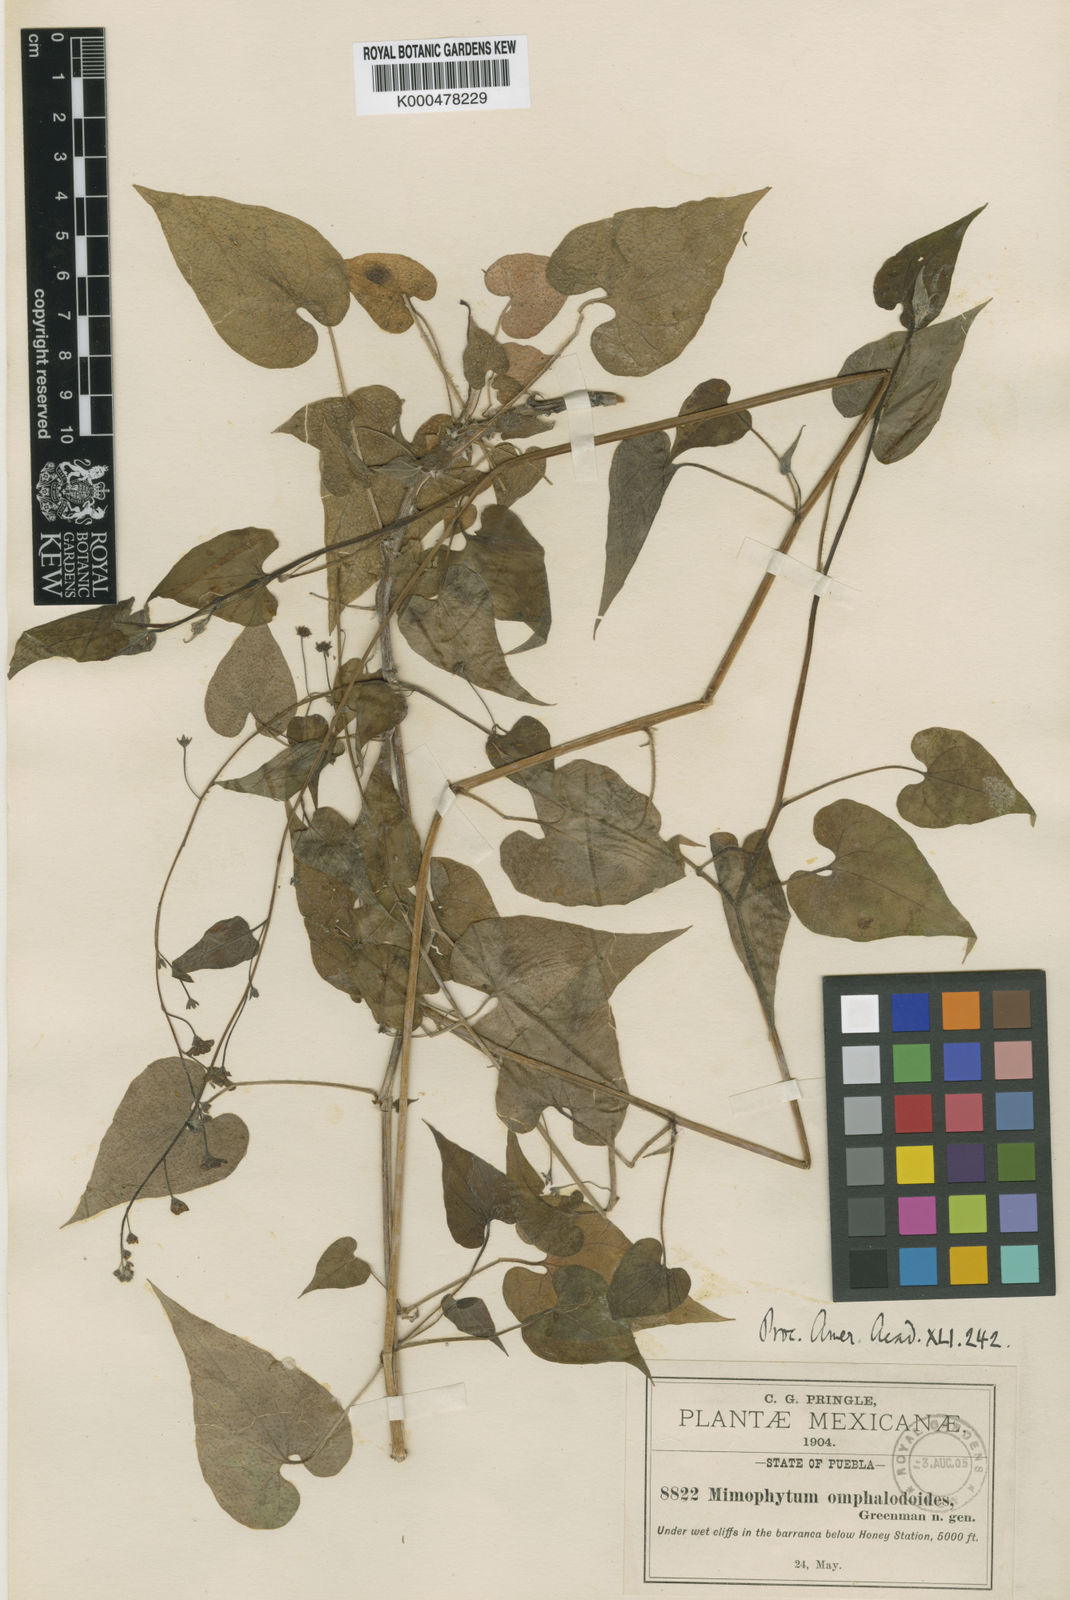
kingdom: Plantae
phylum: Tracheophyta
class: Magnoliopsida
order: Boraginales
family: Boraginaceae
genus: Mimophytum
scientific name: Mimophytum omphalodoides
